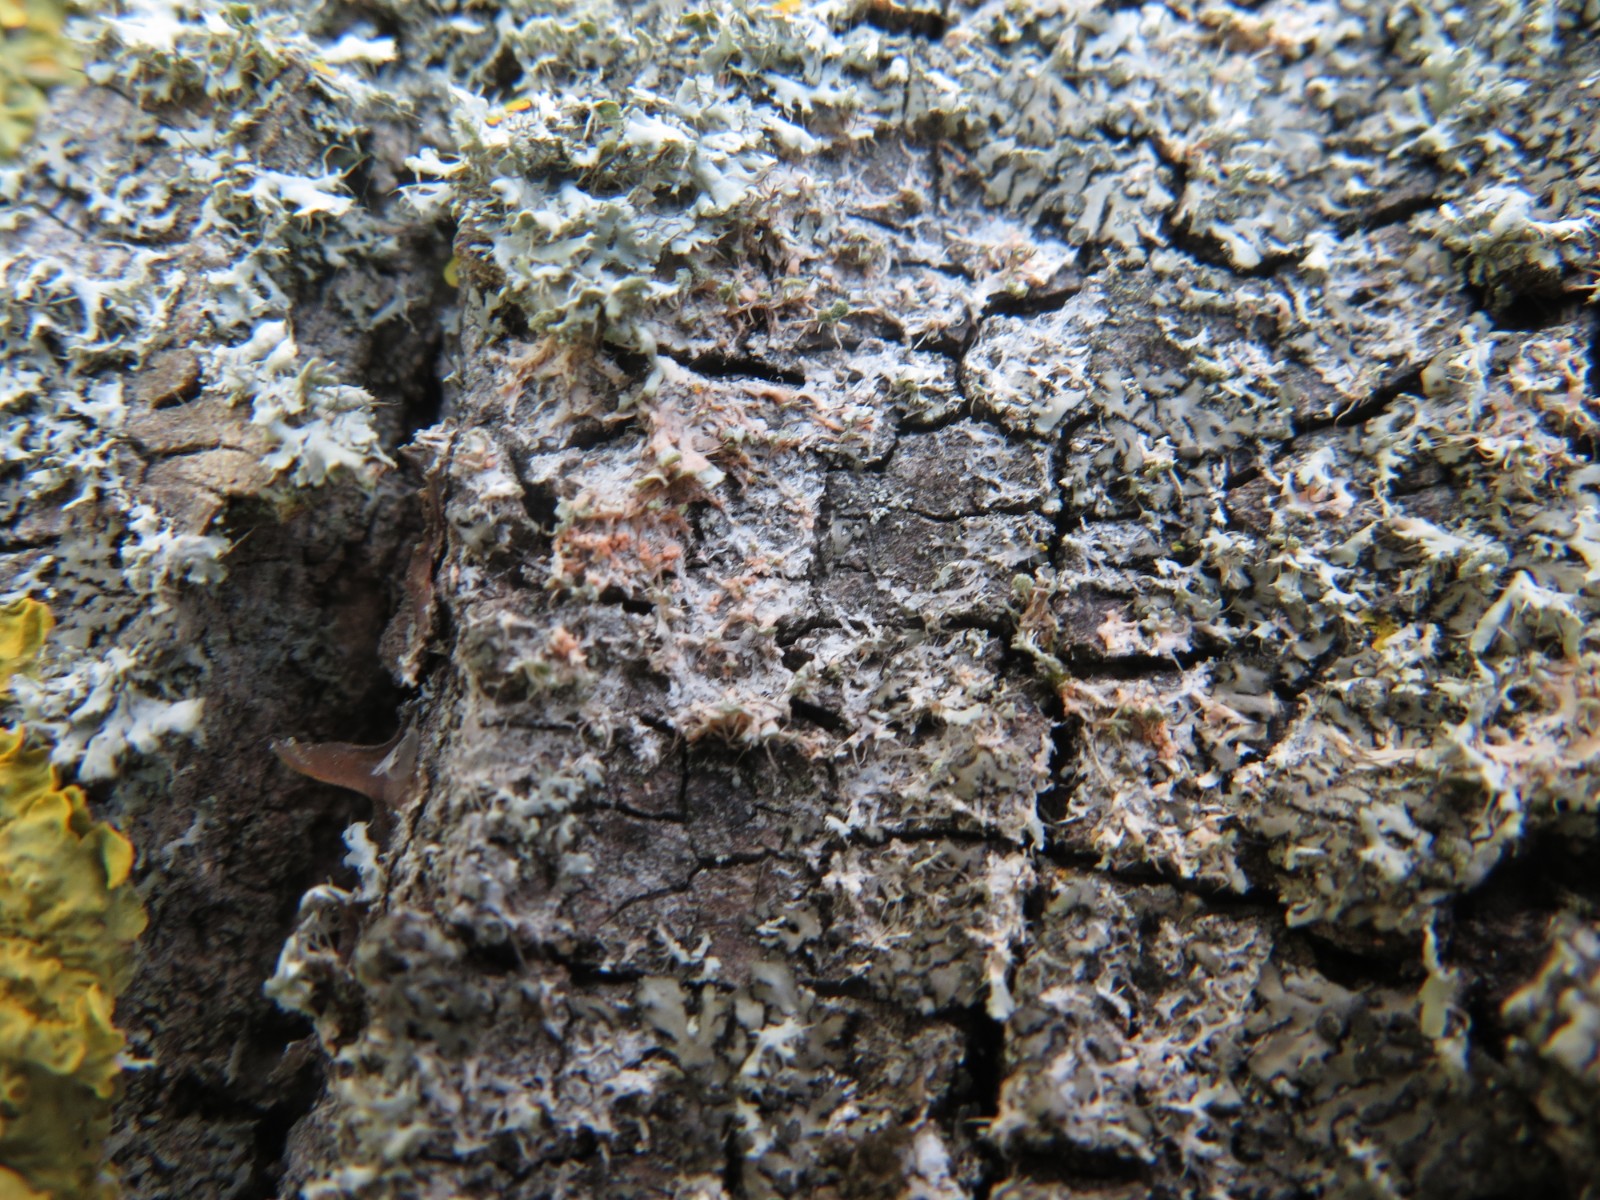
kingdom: Fungi
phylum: Basidiomycota
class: Agaricomycetes
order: Corticiales
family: Corticiaceae
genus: Erythricium
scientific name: Erythricium aurantiacum
